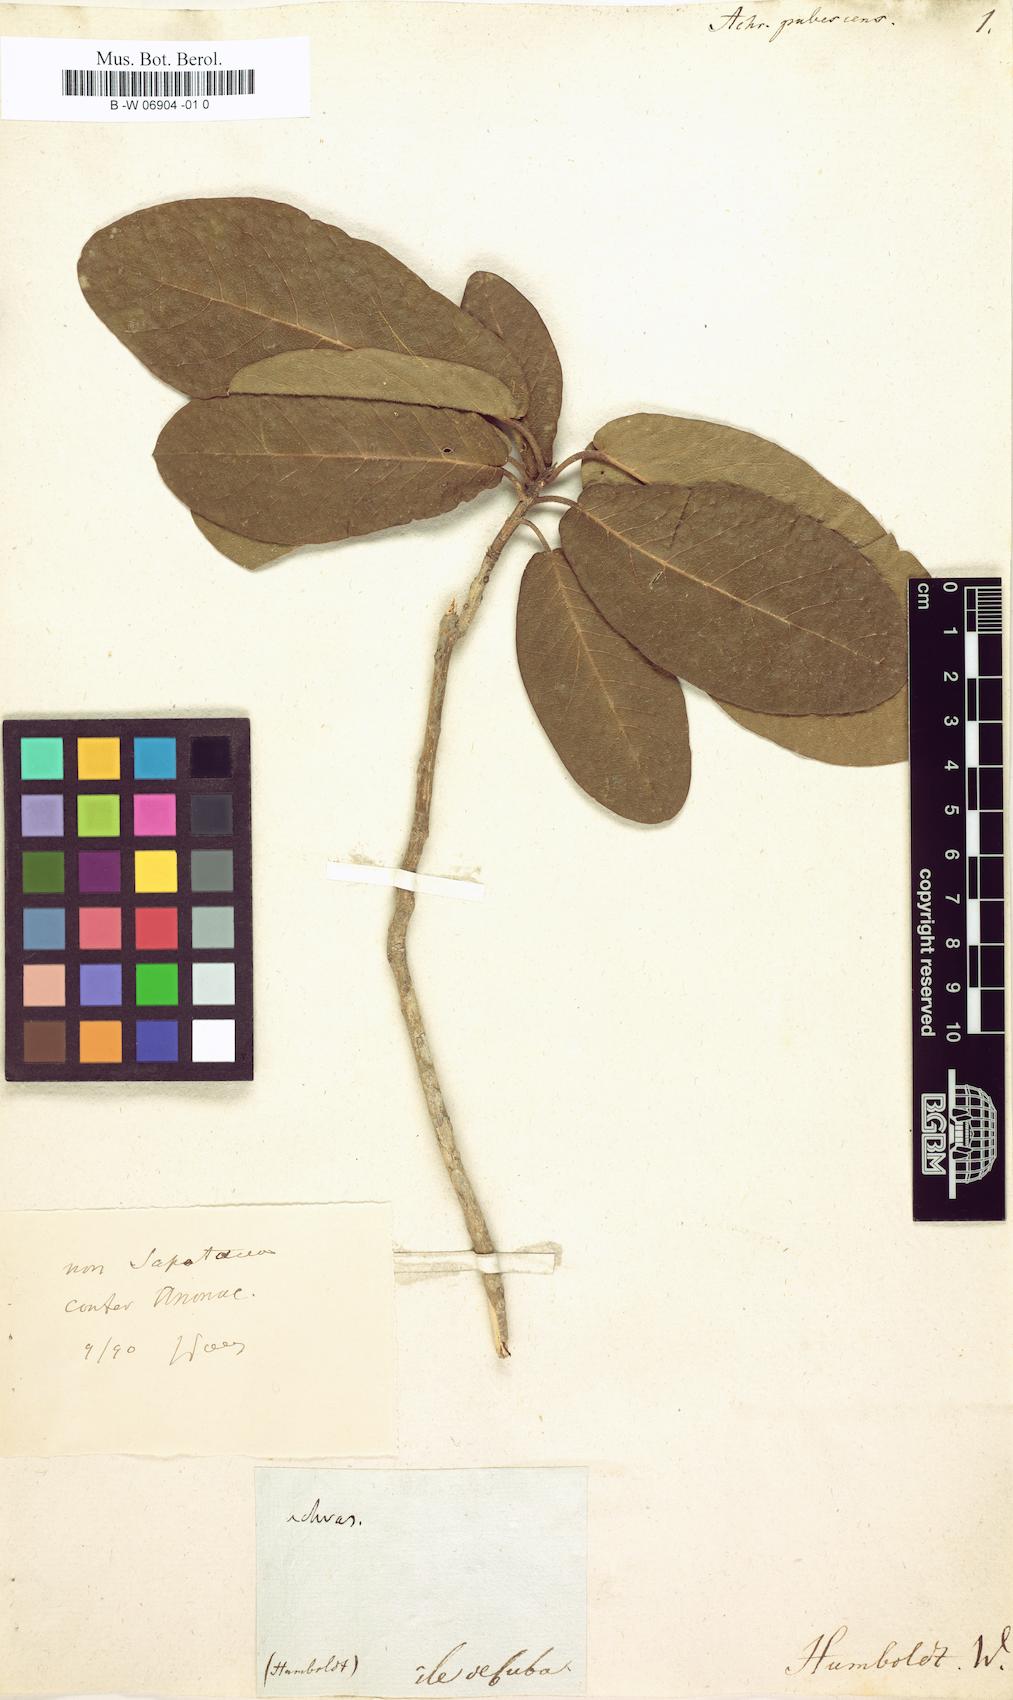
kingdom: Plantae
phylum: Tracheophyta
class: Magnoliopsida
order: Ericales
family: Sapotaceae
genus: Achras
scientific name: Achras
